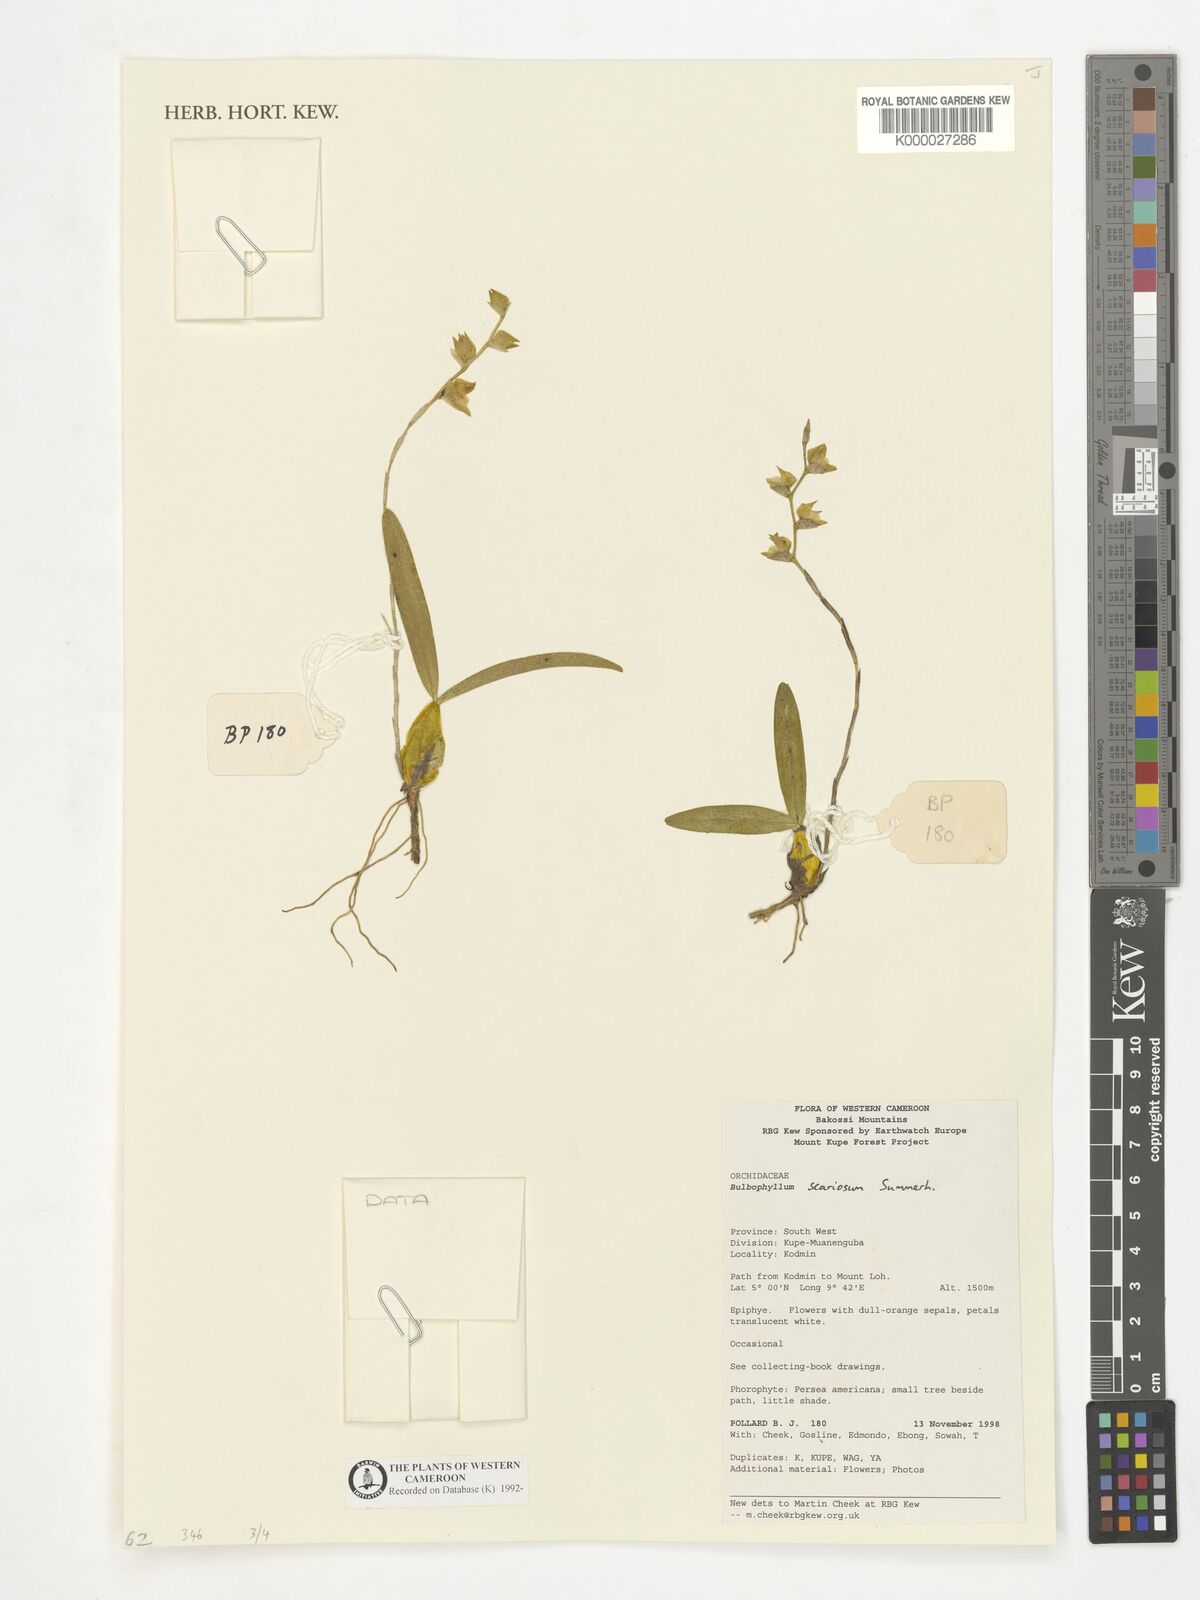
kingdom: Plantae
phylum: Tracheophyta
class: Liliopsida
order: Asparagales
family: Orchidaceae
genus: Bulbophyllum
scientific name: Bulbophyllum scariosum
